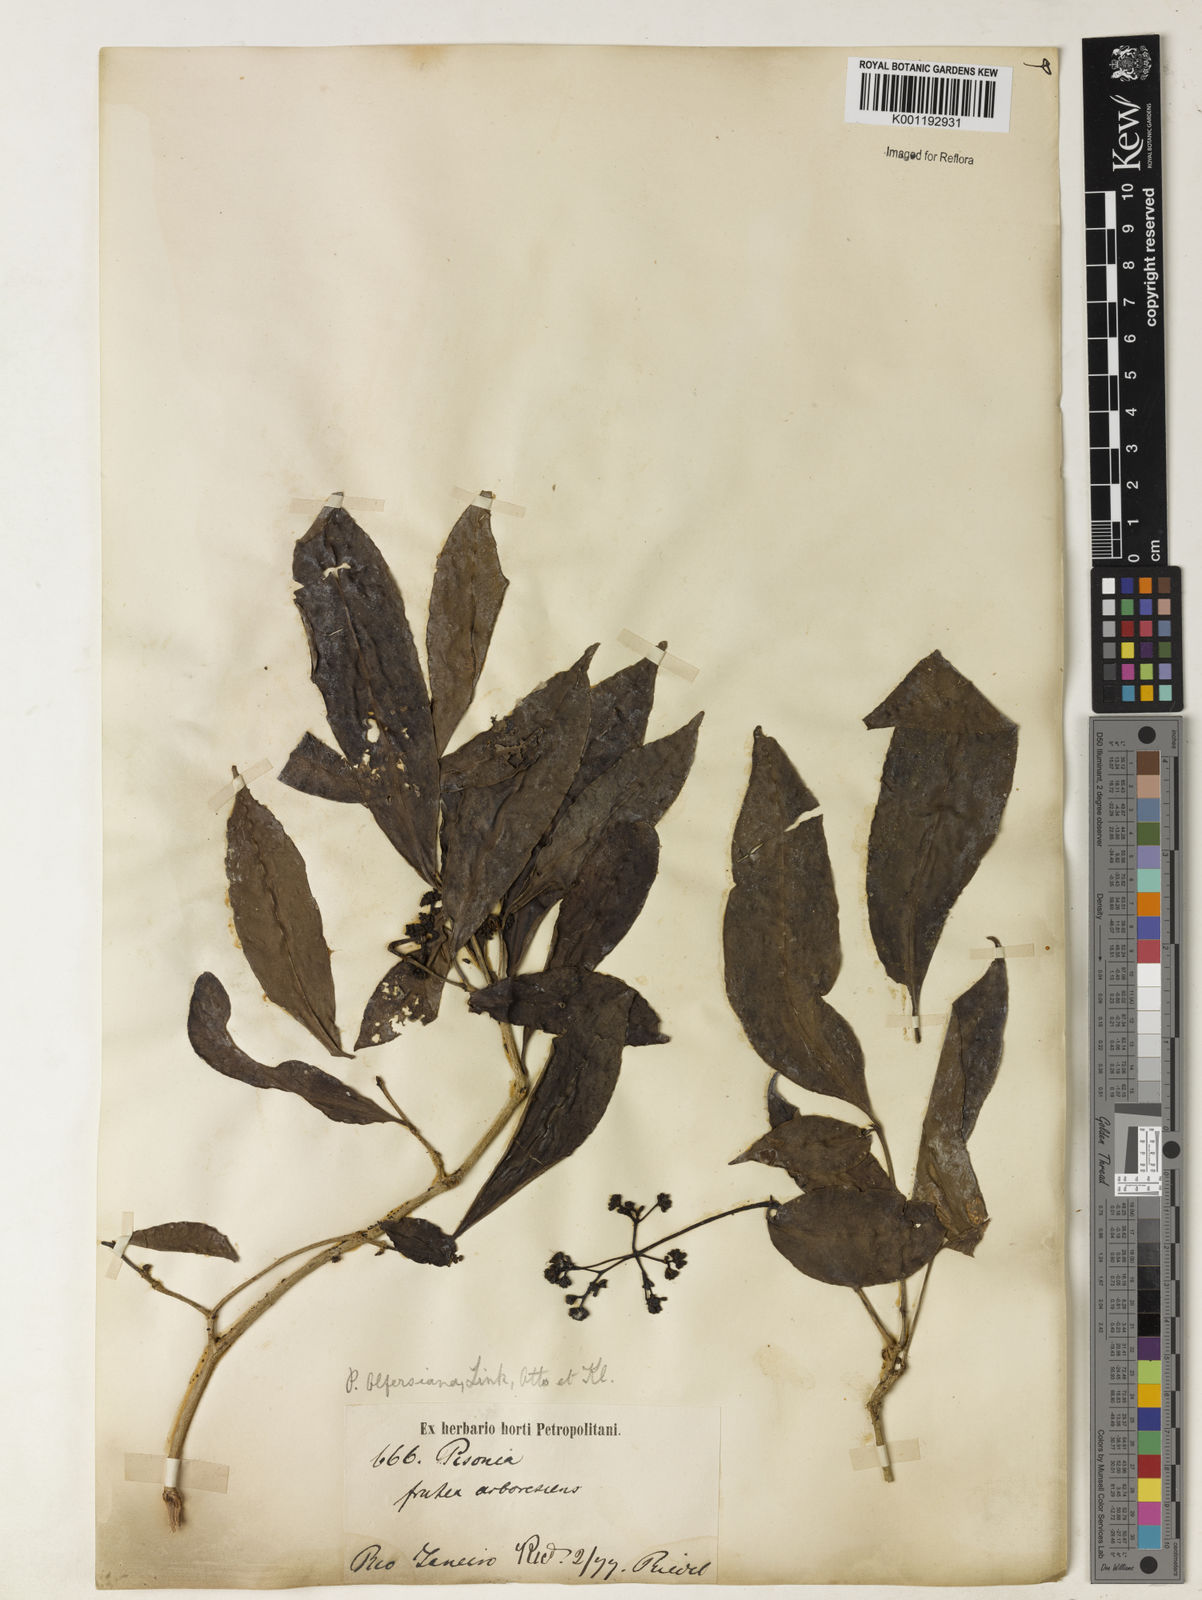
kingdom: Plantae
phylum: Tracheophyta
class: Magnoliopsida
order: Caryophyllales
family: Nyctaginaceae
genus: Guapira
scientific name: Guapira
